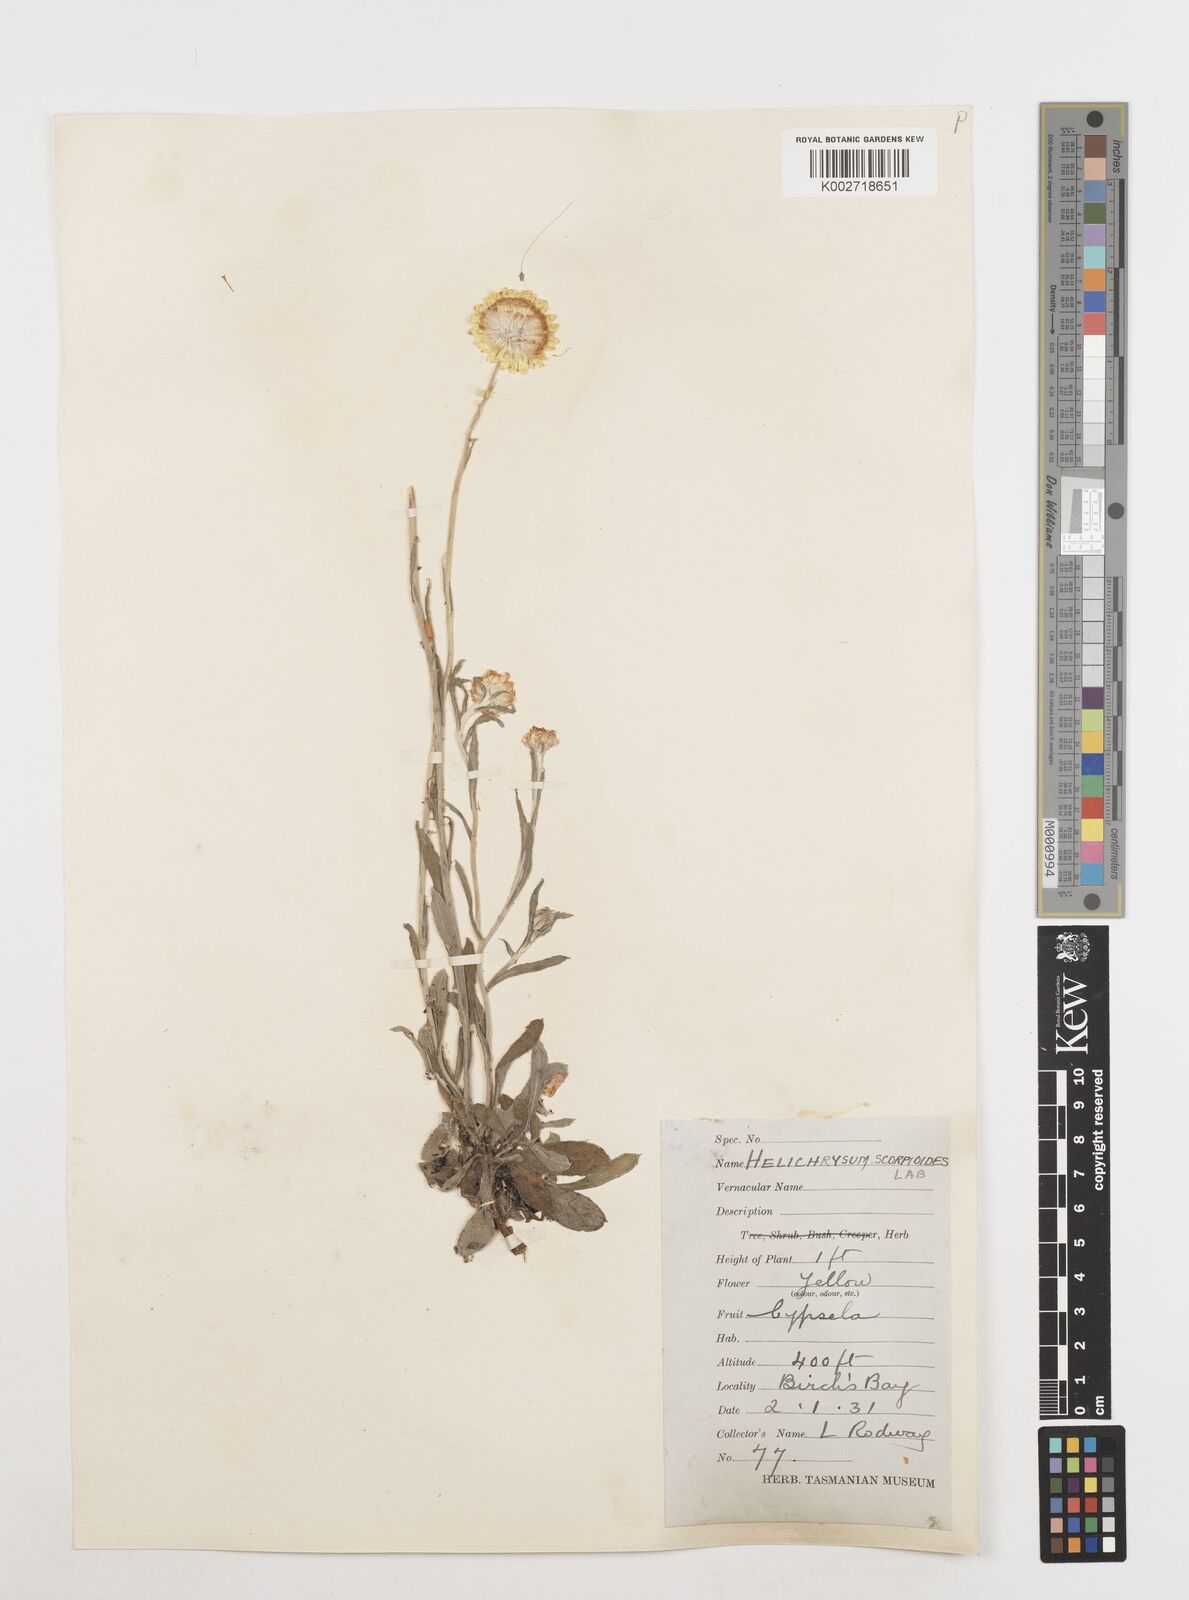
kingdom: Plantae
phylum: Tracheophyta
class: Magnoliopsida
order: Asterales
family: Asteraceae
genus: Coronidium
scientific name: Coronidium scorpioides
